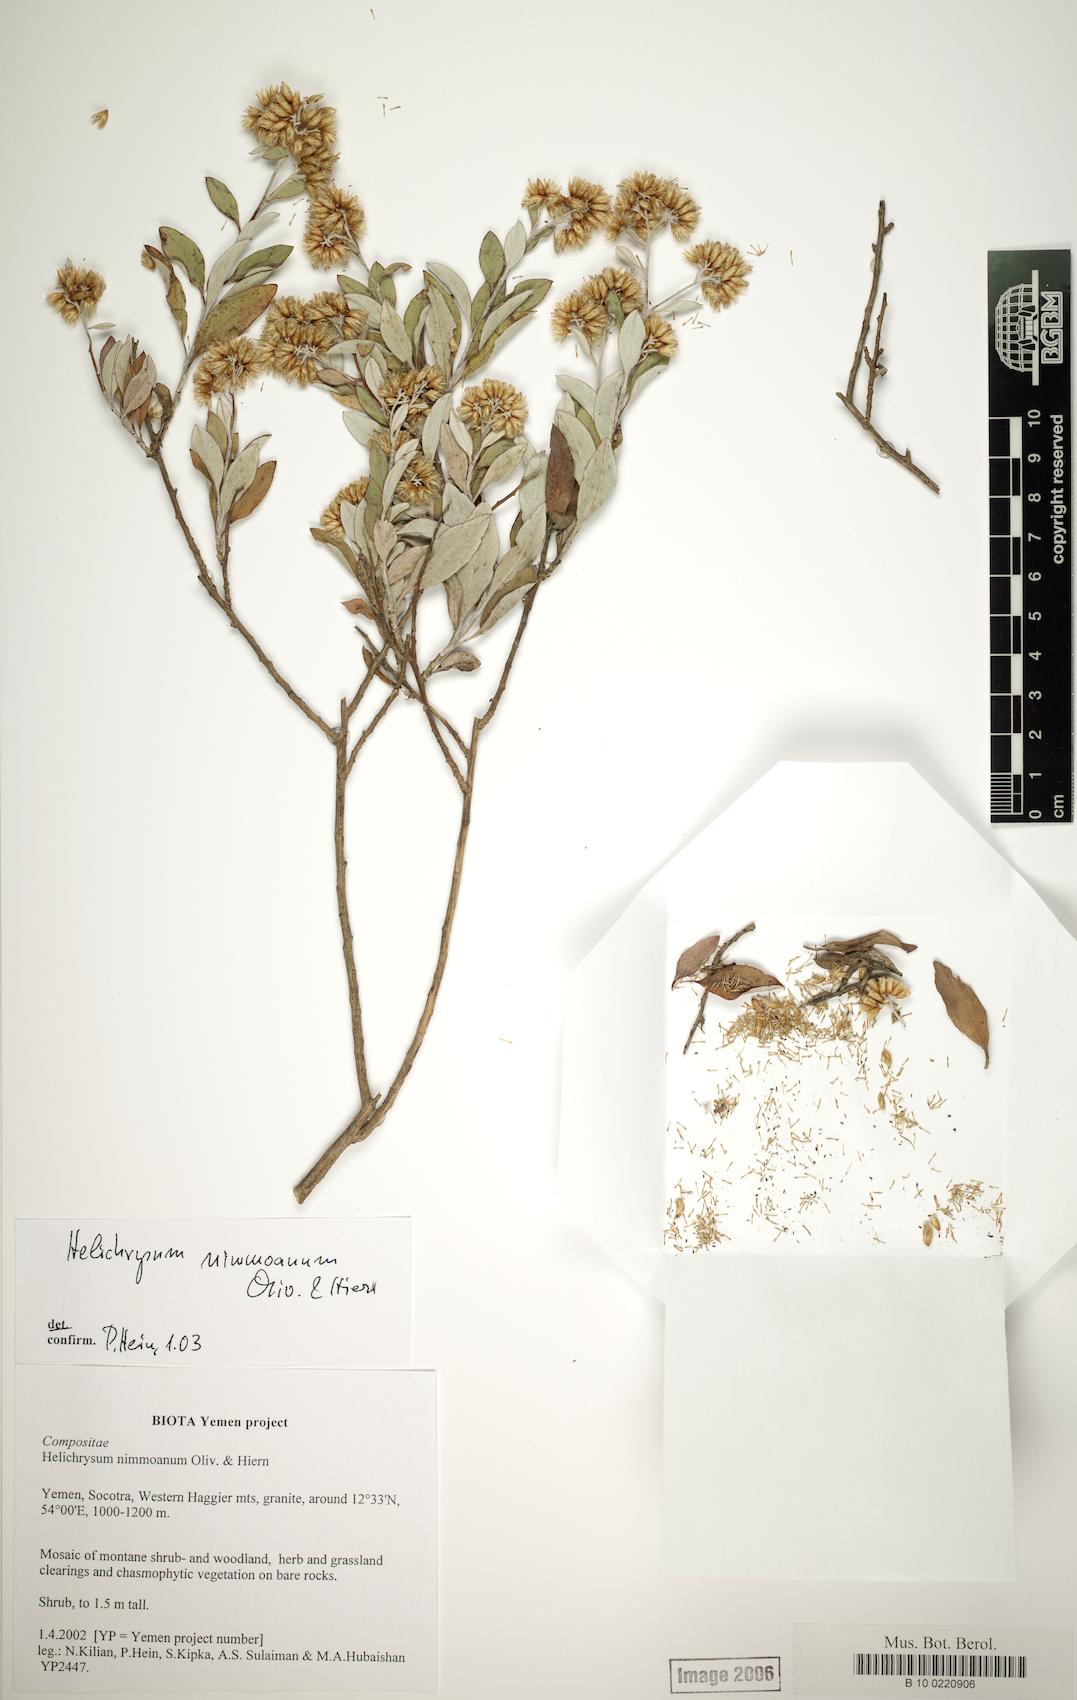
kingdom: Plantae
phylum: Tracheophyta
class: Magnoliopsida
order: Asterales
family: Asteraceae
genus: Libinhania
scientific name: Libinhania nimmoana
